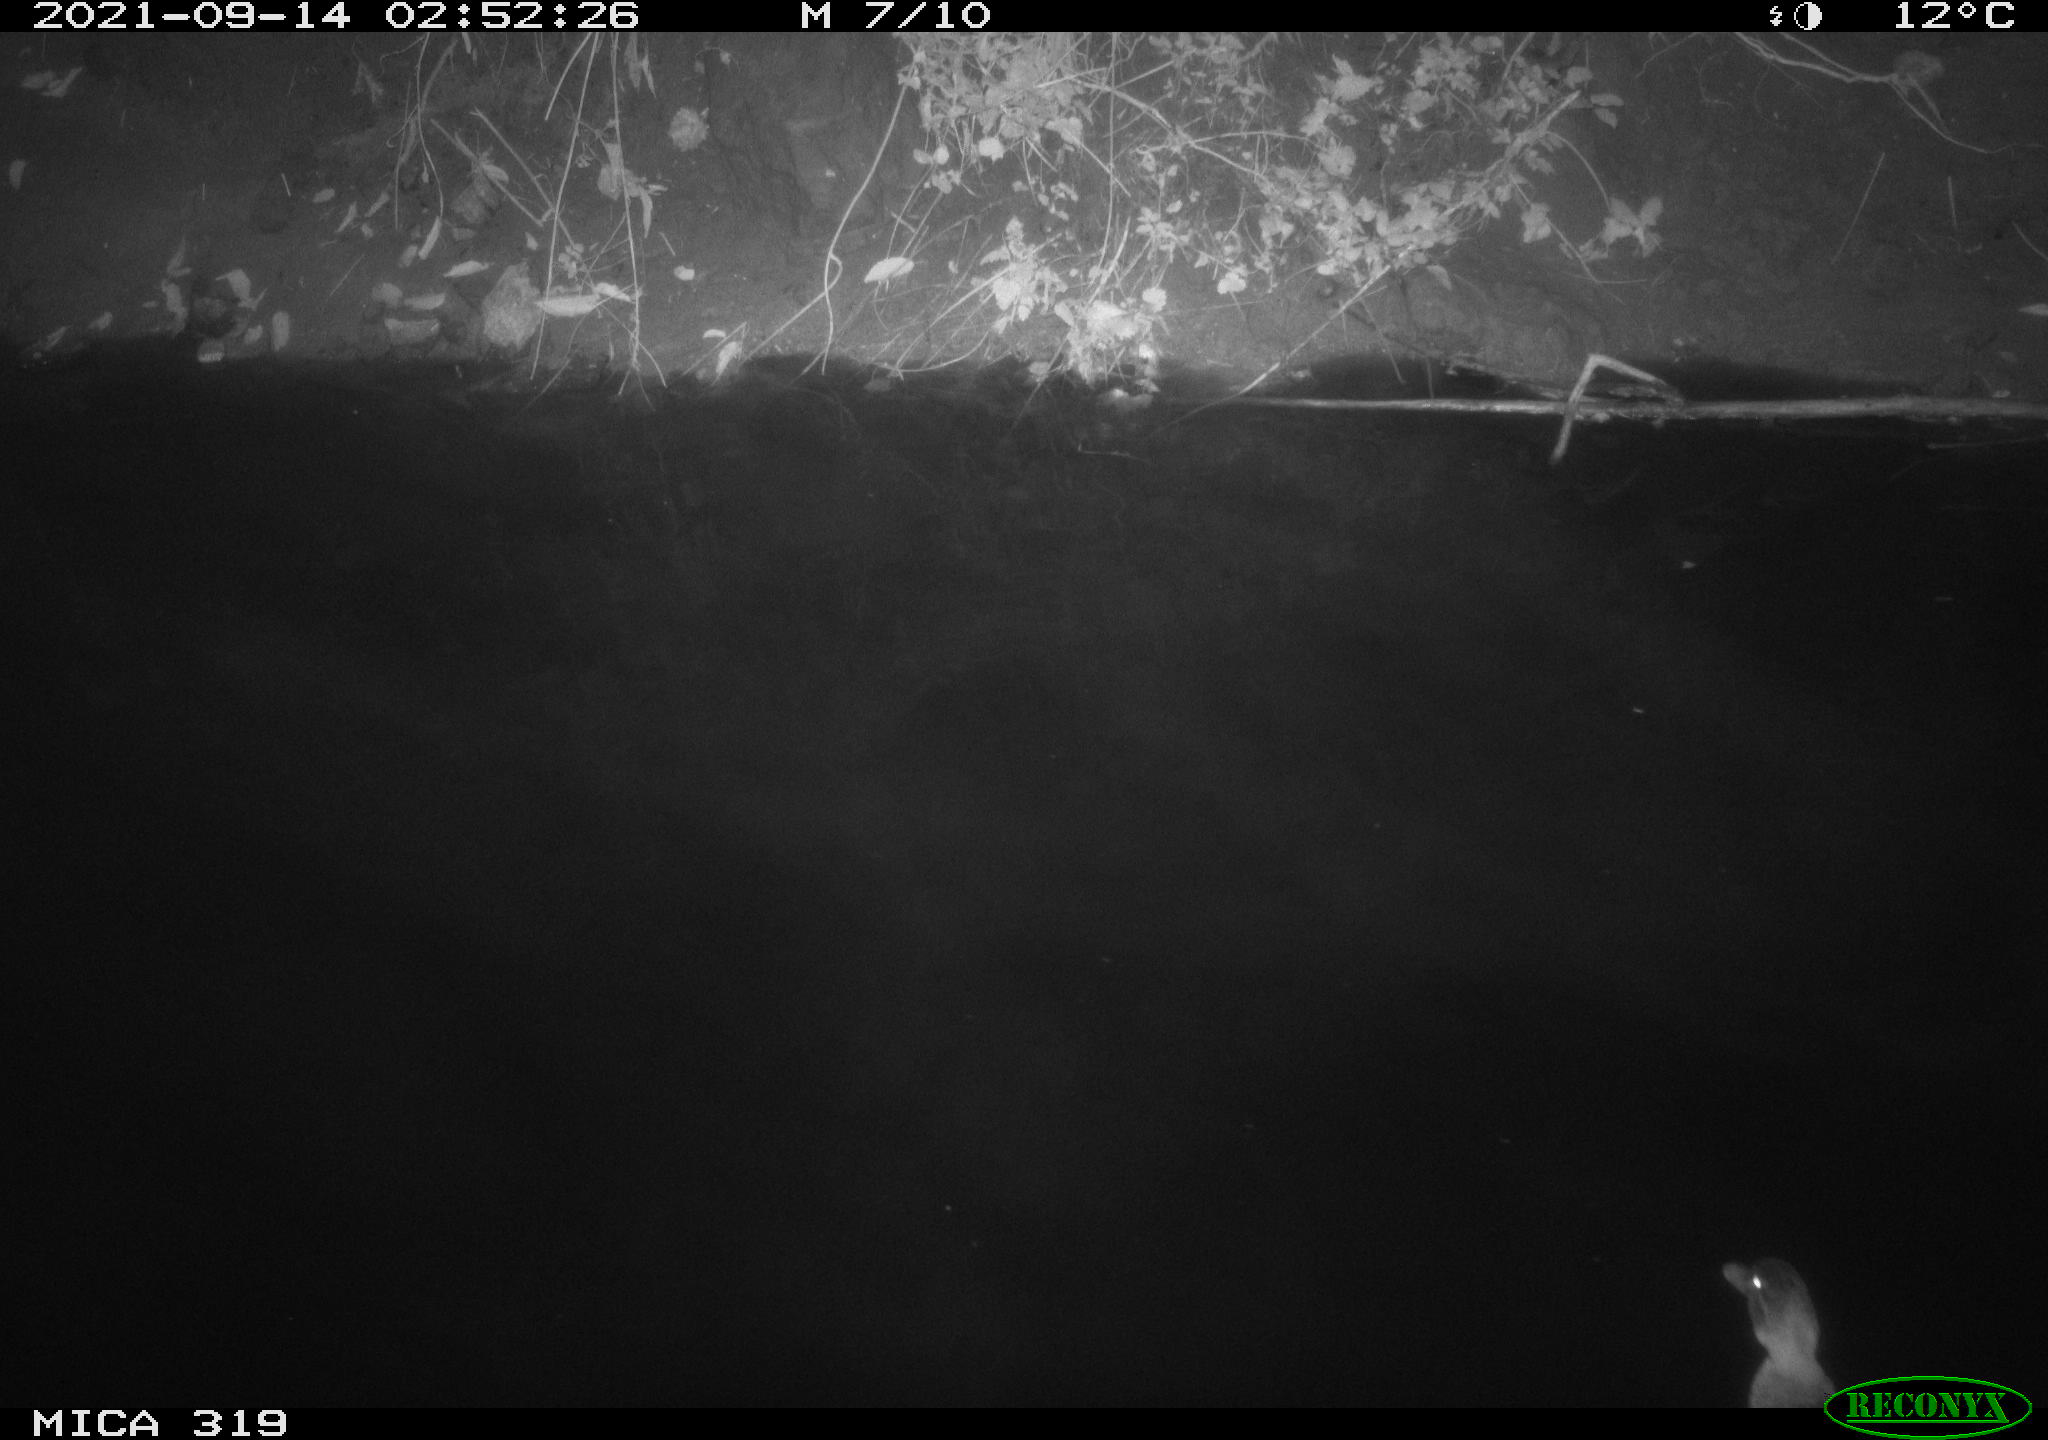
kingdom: Animalia
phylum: Chordata
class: Aves
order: Anseriformes
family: Anatidae
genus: Anas
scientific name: Anas platyrhynchos
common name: Mallard
